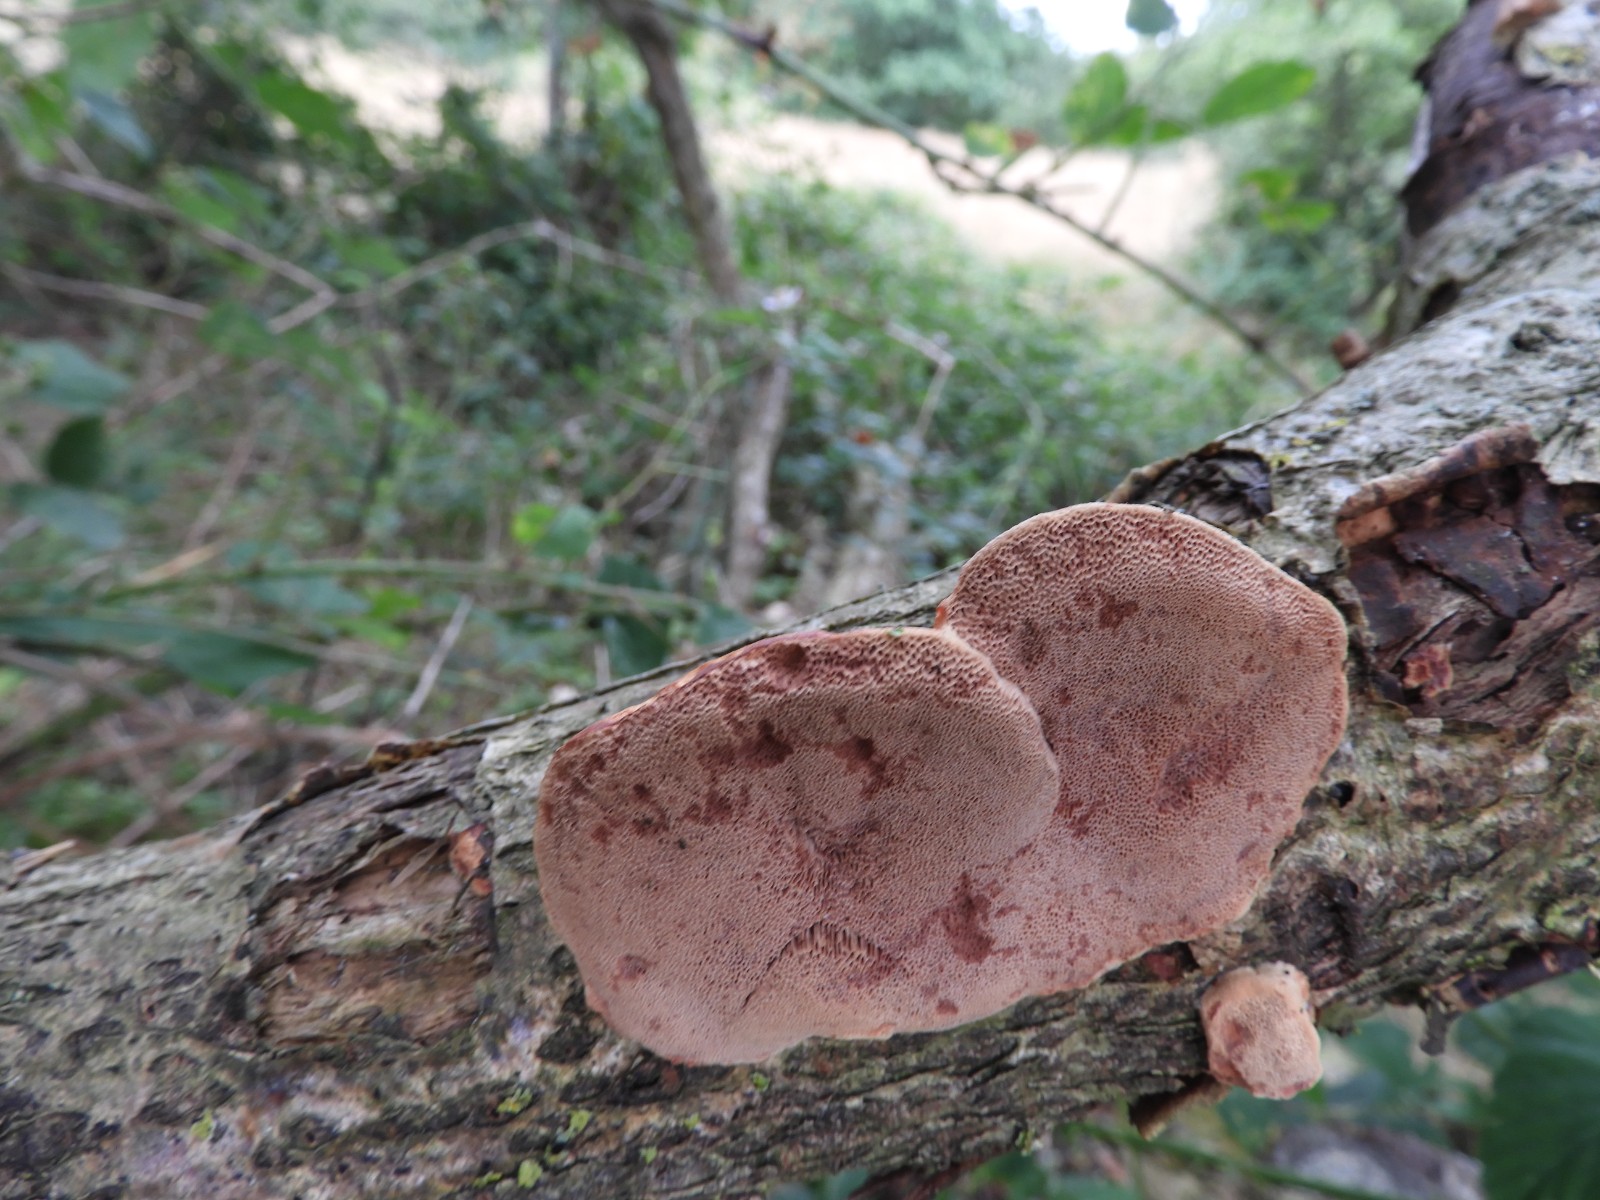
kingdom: Fungi
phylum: Basidiomycota
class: Agaricomycetes
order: Polyporales
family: Phanerochaetaceae
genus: Hapalopilus
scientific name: Hapalopilus rutilans
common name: rødlig okkerporesvamp
